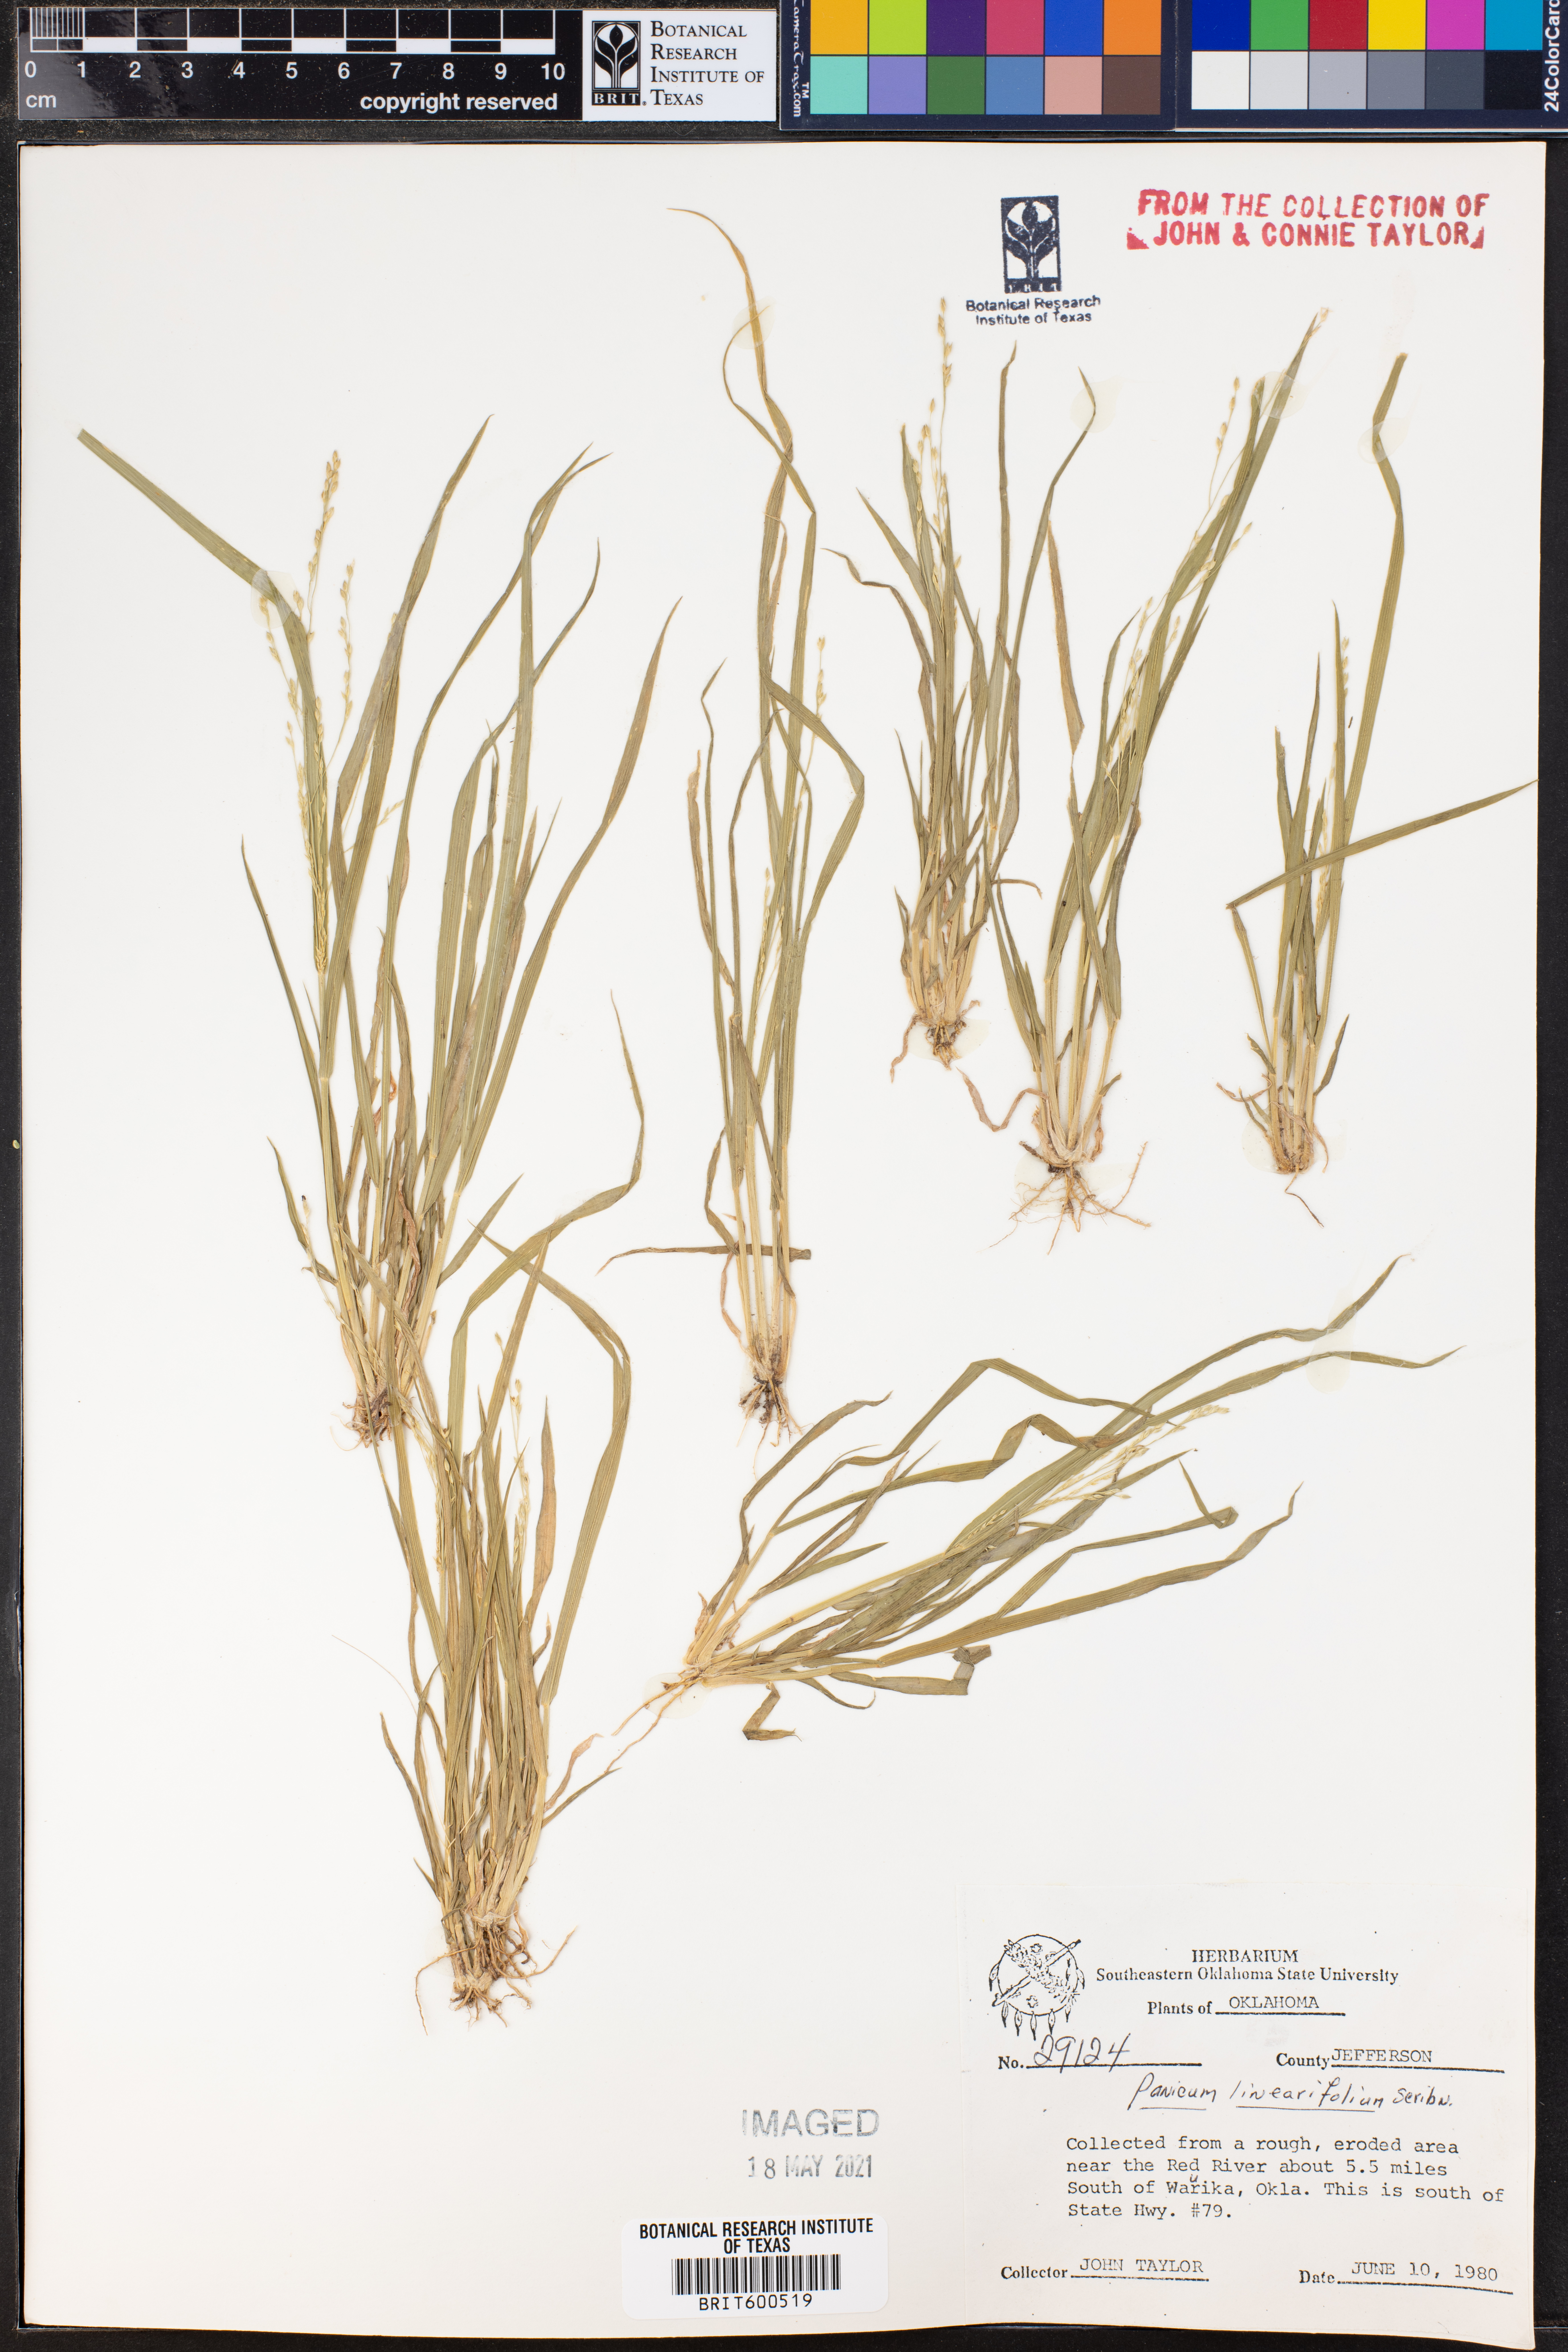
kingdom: Plantae
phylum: Tracheophyta
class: Liliopsida
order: Poales
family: Poaceae
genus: Dichanthelium
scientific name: Dichanthelium linearifolium
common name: Linear-leaved panicgrass
